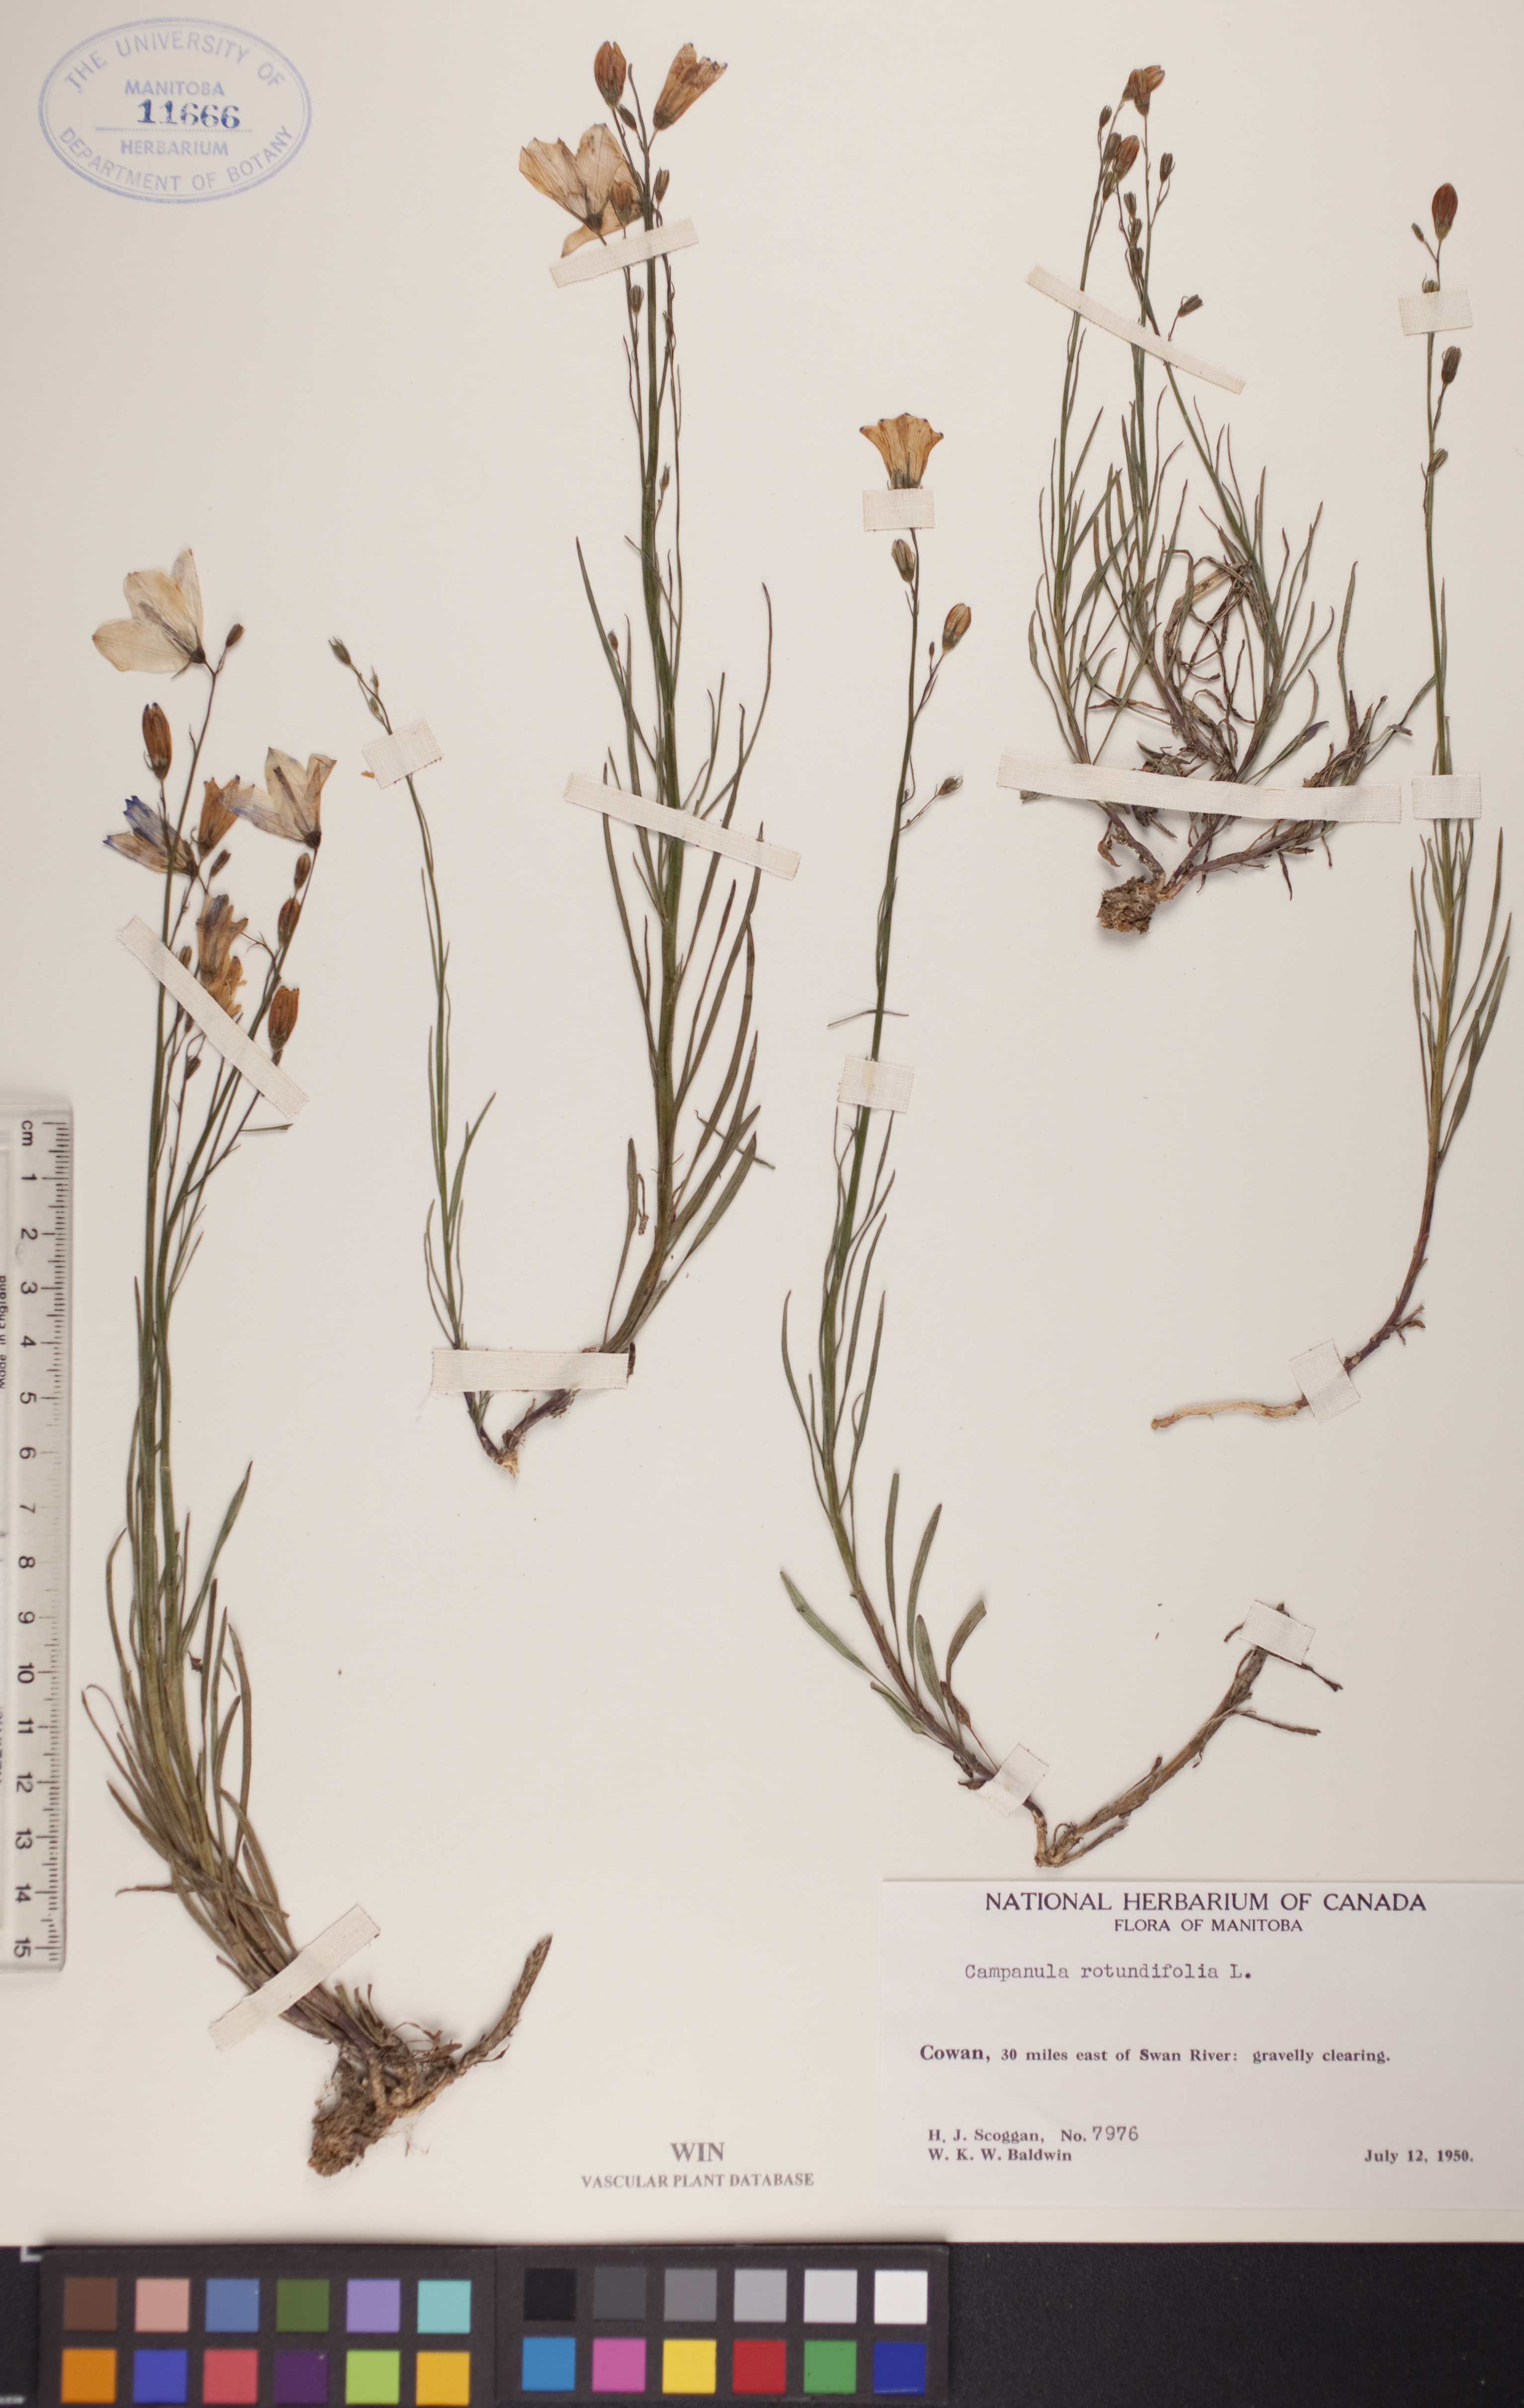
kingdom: Plantae
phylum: Tracheophyta
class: Magnoliopsida
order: Asterales
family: Campanulaceae
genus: Campanula
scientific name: Campanula rotundifolia
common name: Harebell
